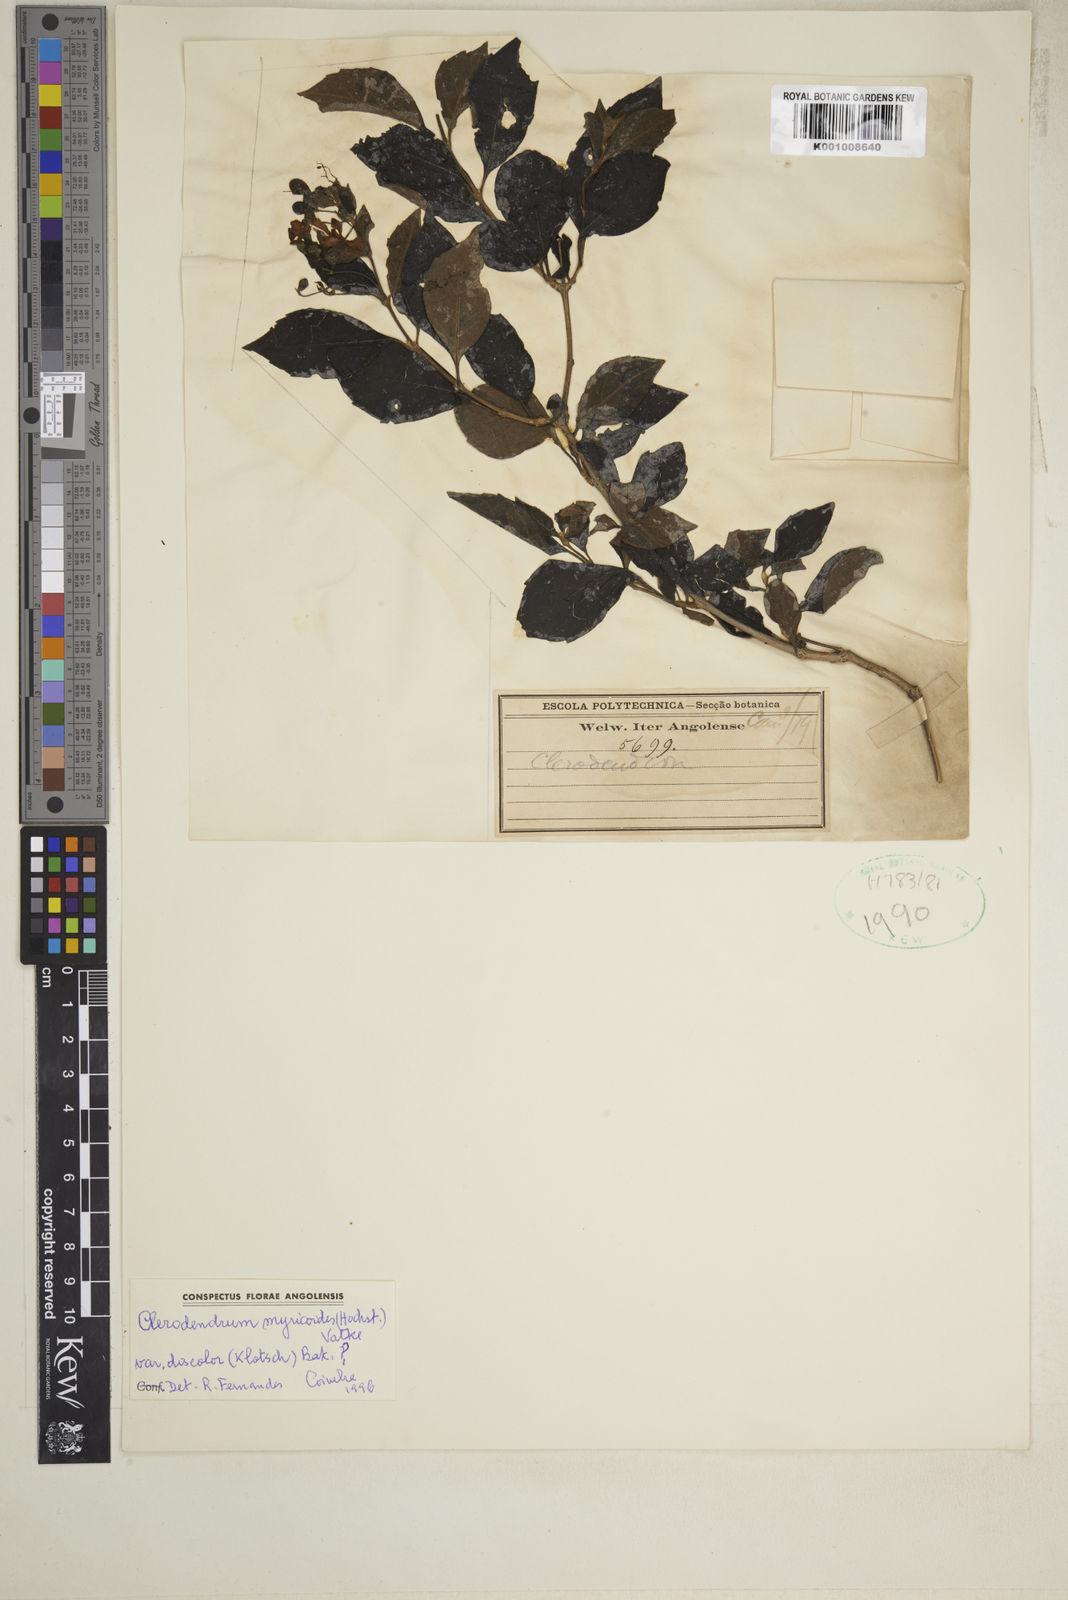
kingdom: Plantae
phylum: Tracheophyta
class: Magnoliopsida
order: Lamiales
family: Lamiaceae
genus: Rotheca
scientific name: Rotheca myricoides
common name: Cats-whiskers
